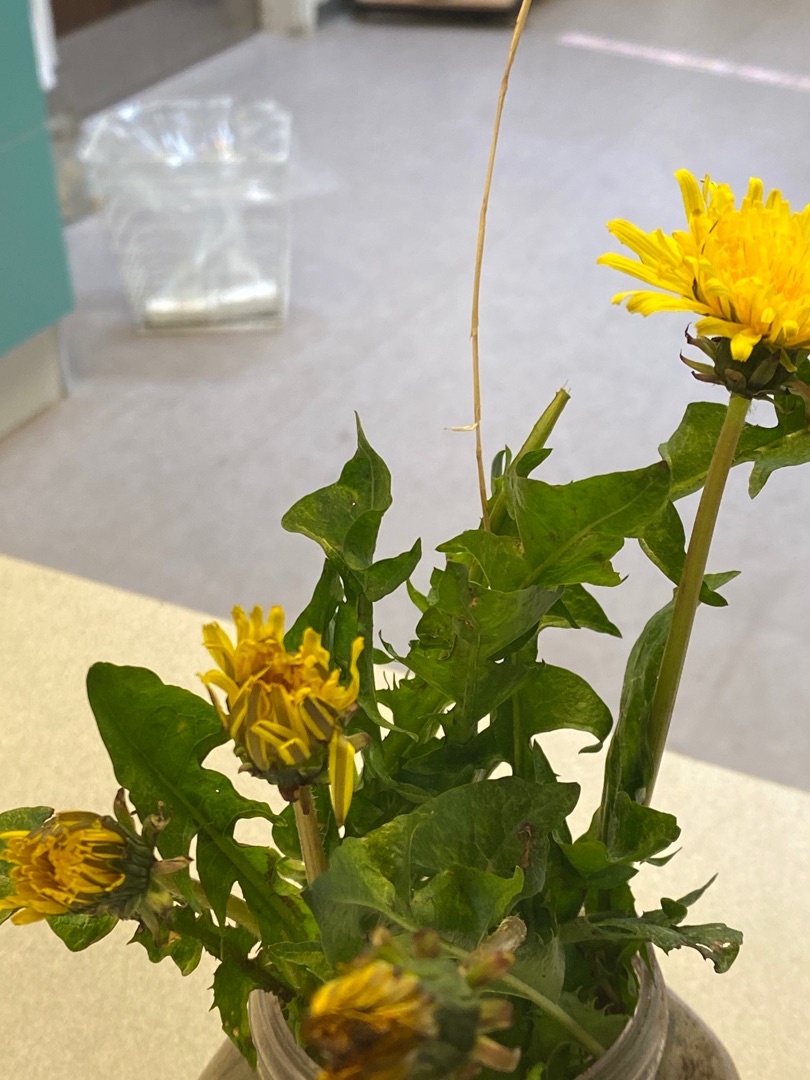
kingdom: Plantae
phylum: Tracheophyta
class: Magnoliopsida
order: Asterales
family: Asteraceae
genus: Taraxacum
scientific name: Taraxacum
